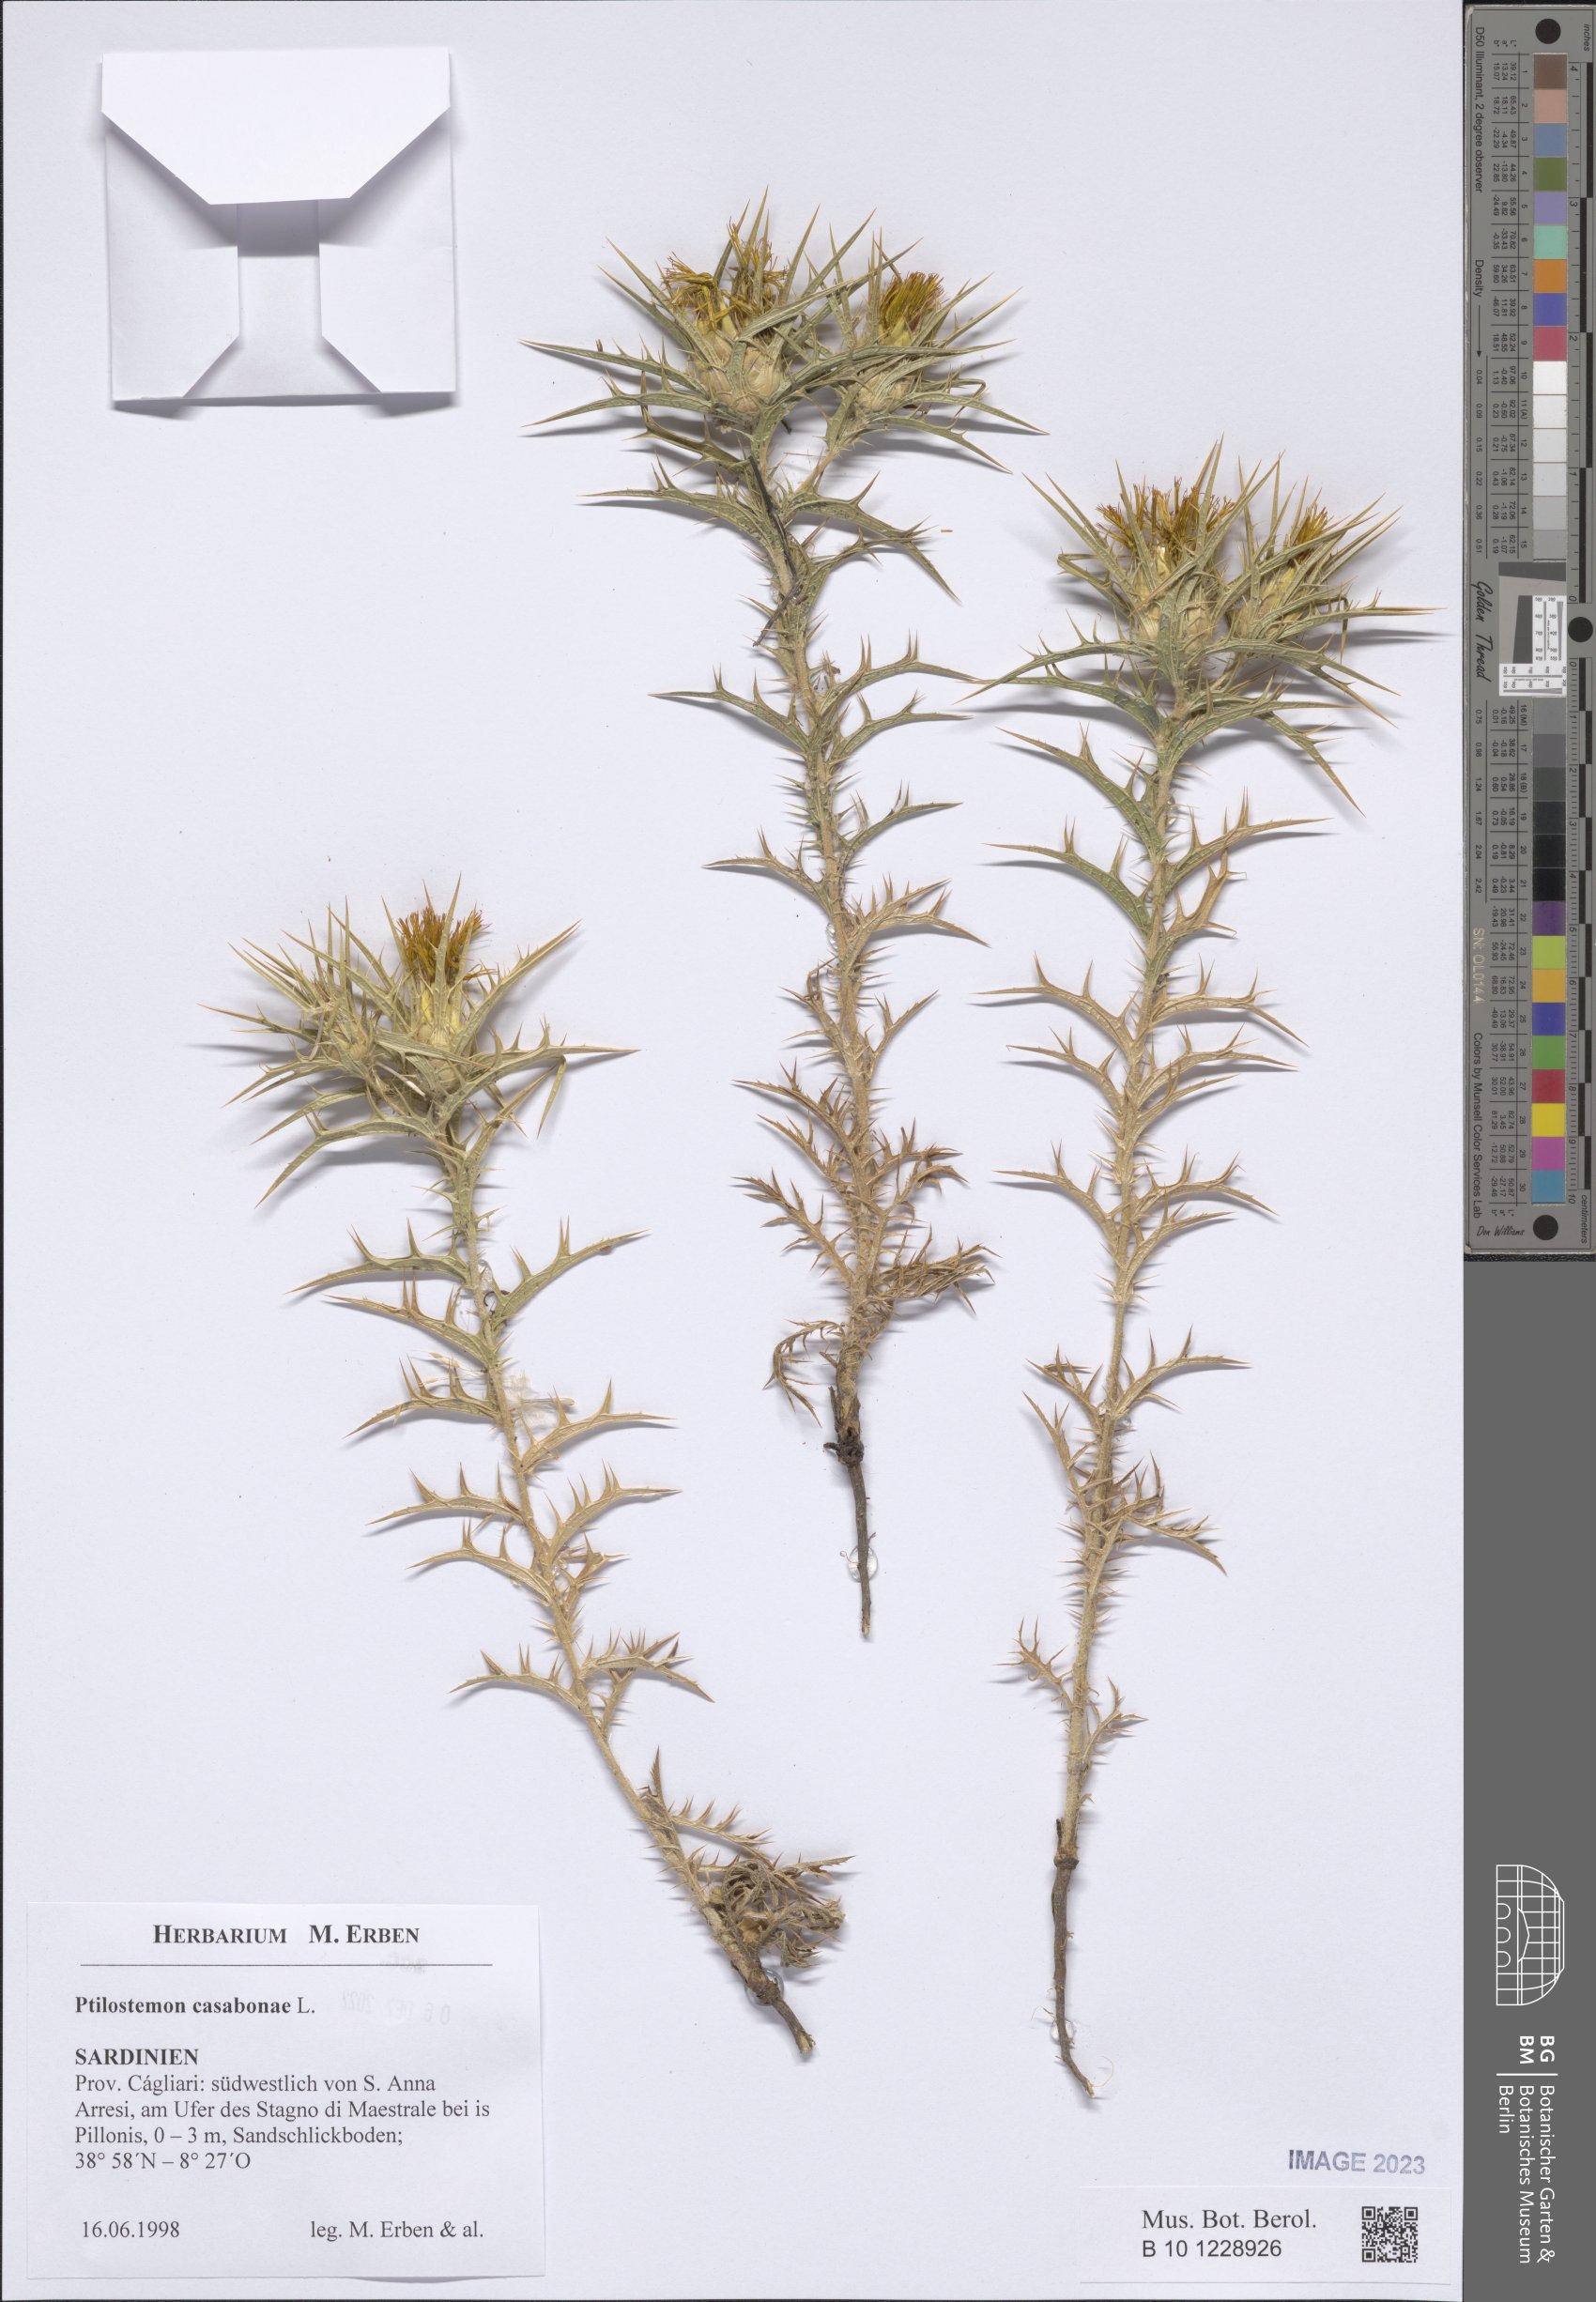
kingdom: Plantae
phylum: Tracheophyta
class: Magnoliopsida
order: Asterales
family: Asteraceae
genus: Ptilostemon
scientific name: Ptilostemon casabonae
